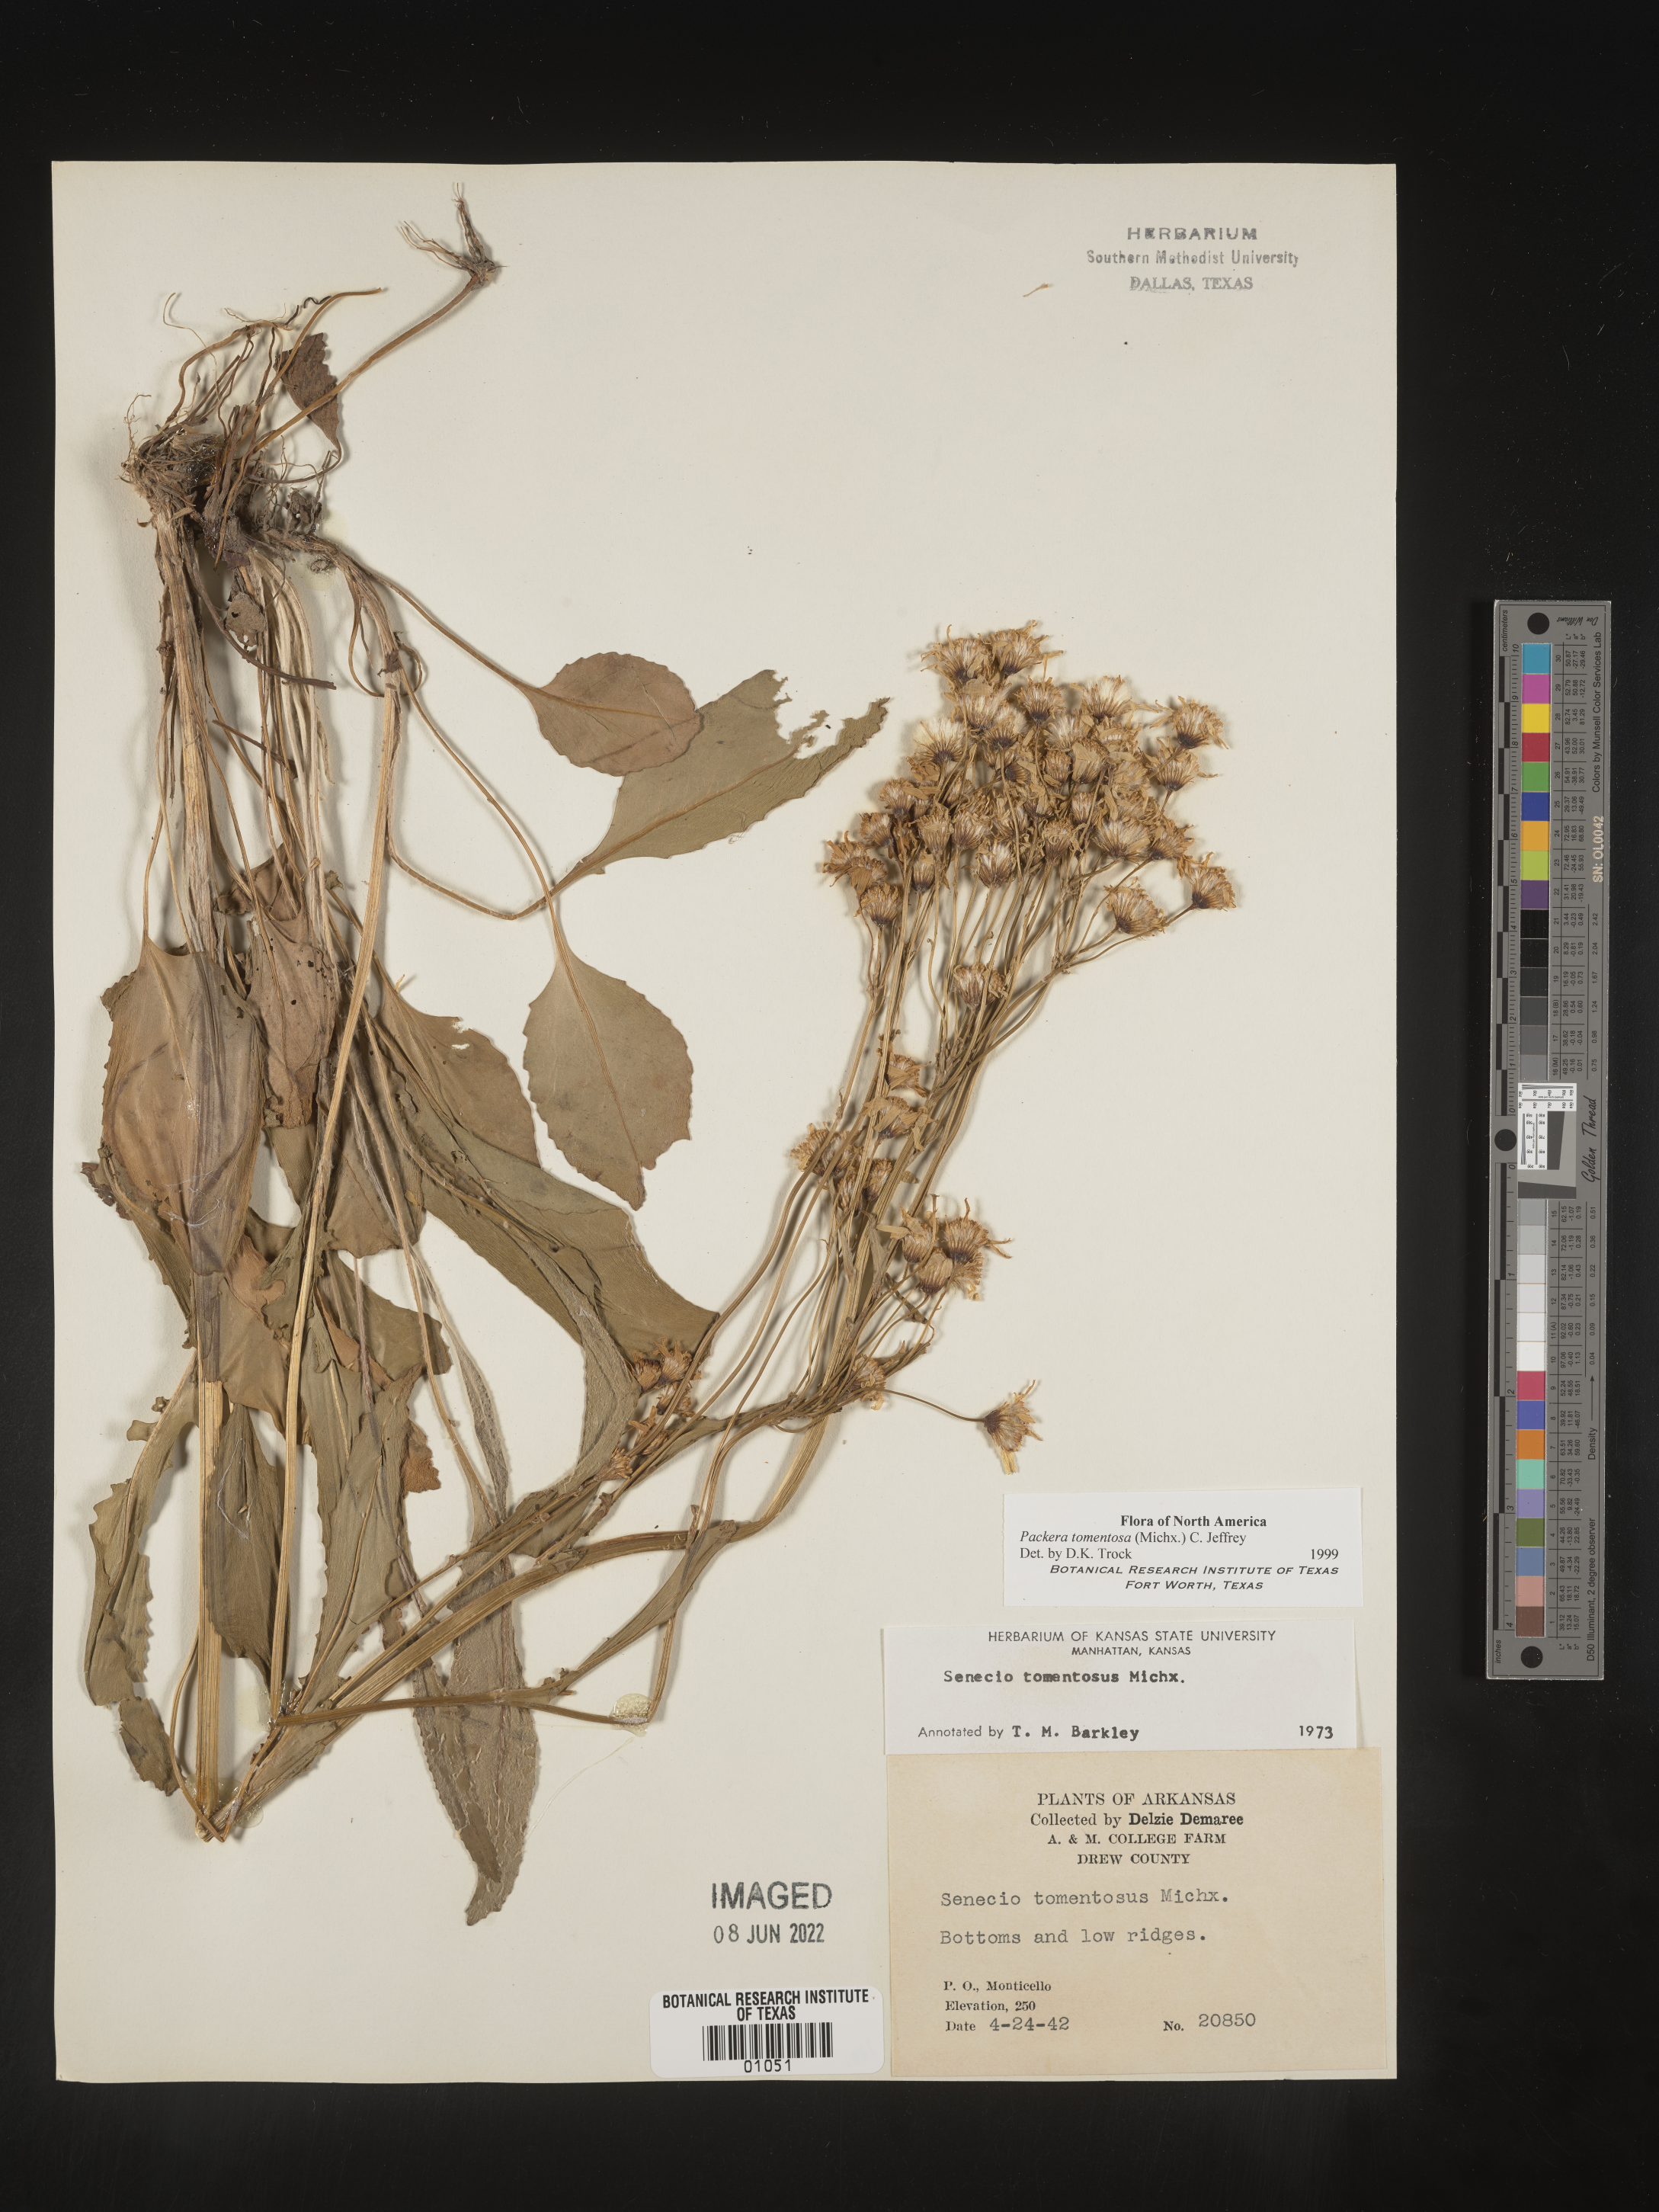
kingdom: Plantae
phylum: Tracheophyta
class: Magnoliopsida
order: Asterales
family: Asteraceae
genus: Packera
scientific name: Packera dubia
